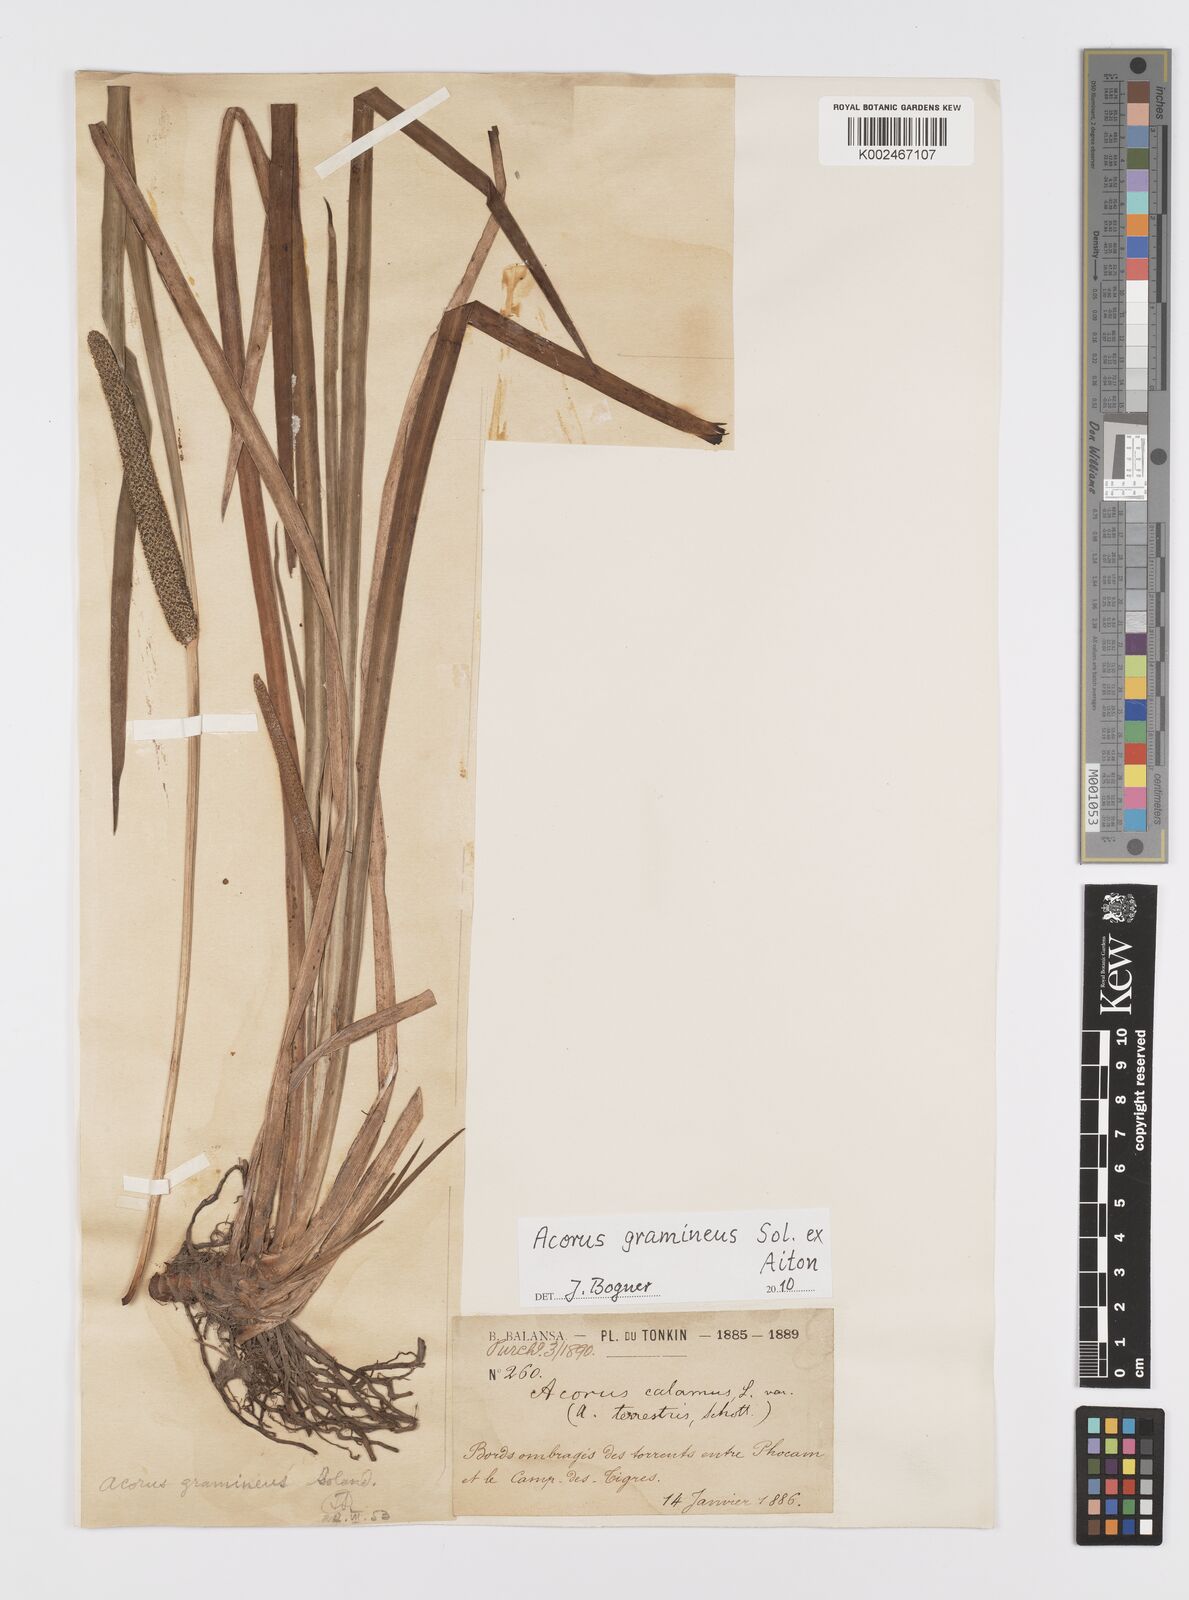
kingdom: Plantae
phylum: Tracheophyta
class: Liliopsida
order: Acorales
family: Acoraceae
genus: Acorus
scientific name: Acorus gramineus
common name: Slender sweet-flag
